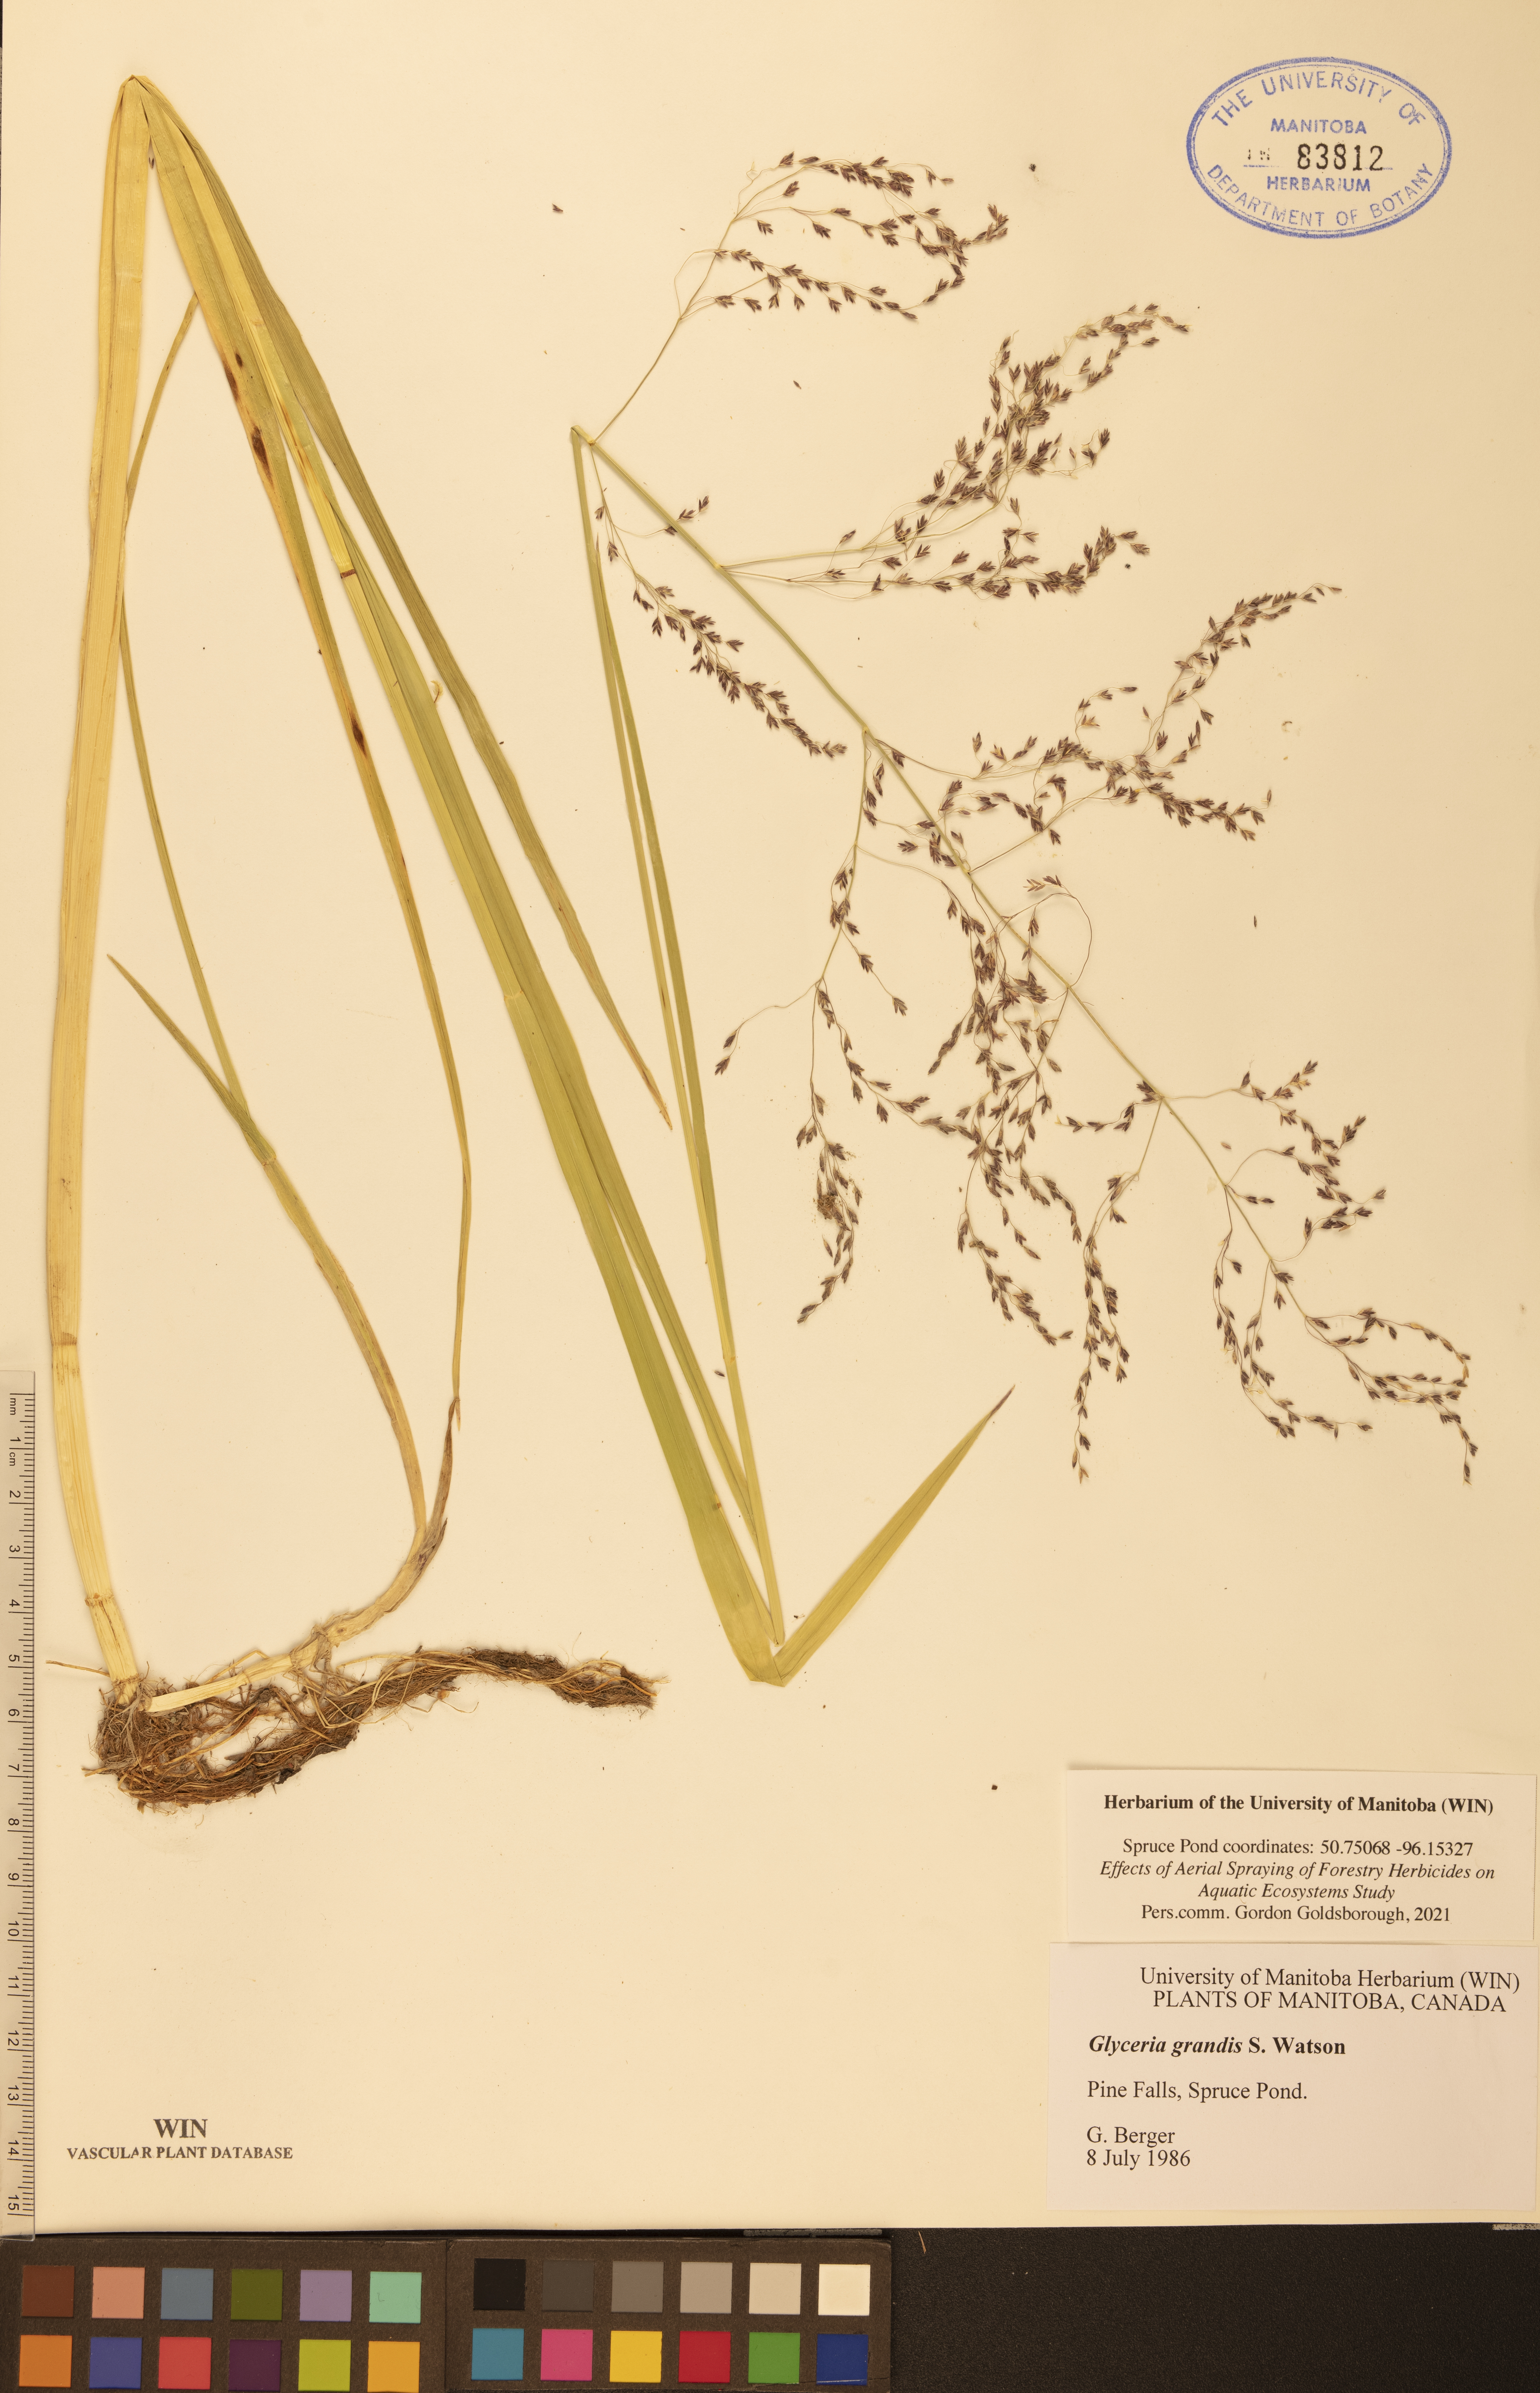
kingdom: Plantae
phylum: Tracheophyta
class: Liliopsida
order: Poales
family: Poaceae
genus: Glyceria
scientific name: Glyceria grandis
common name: American glyceria
